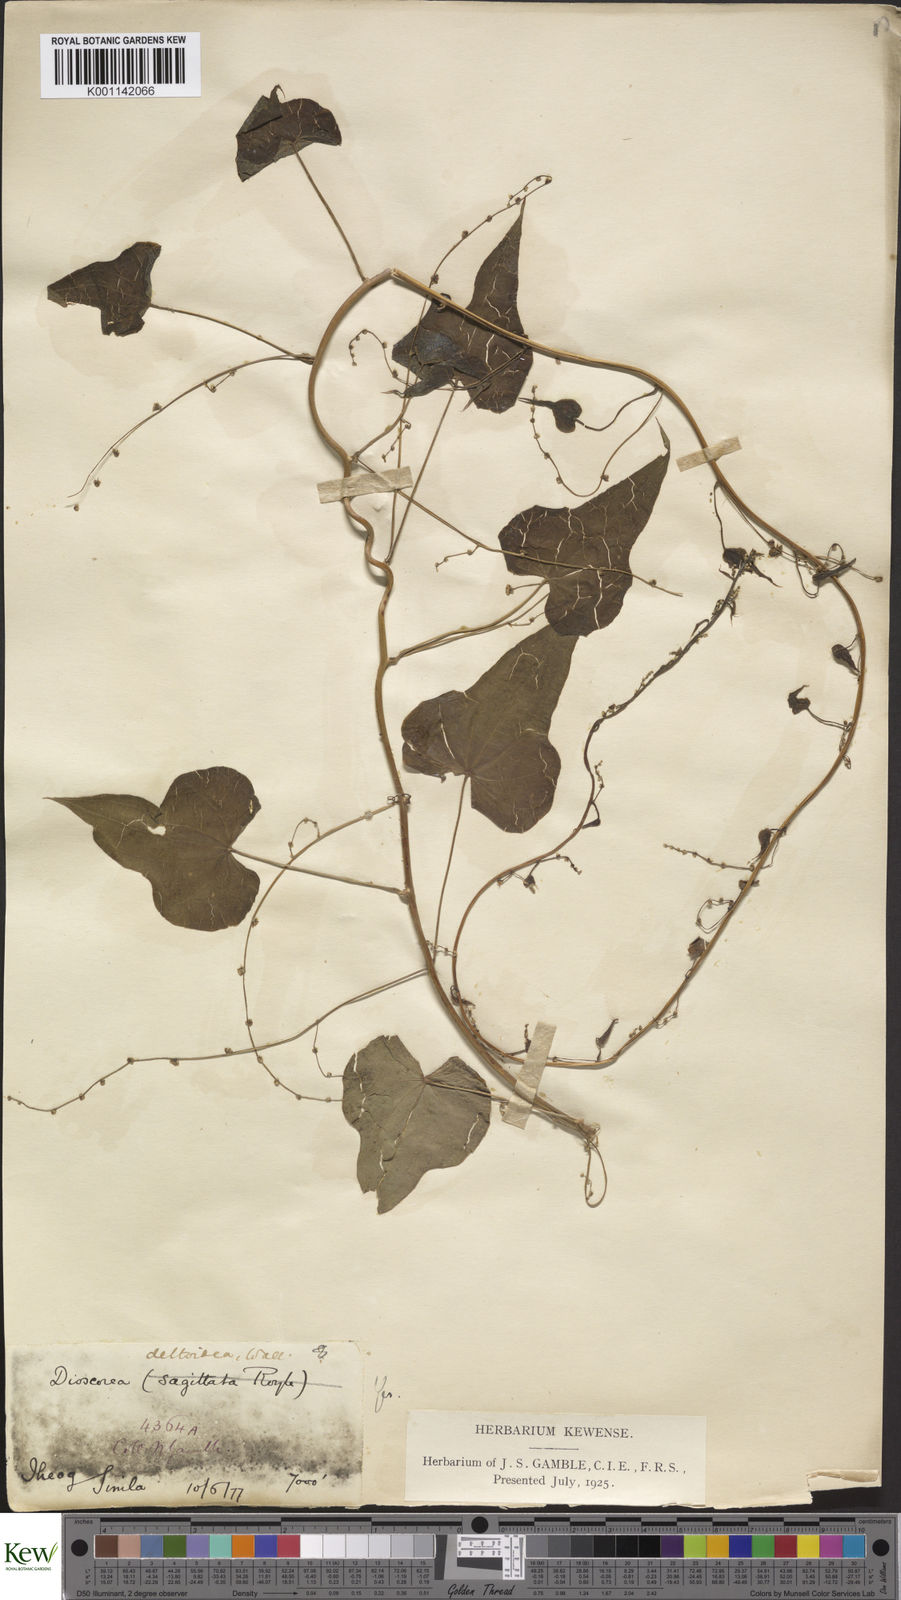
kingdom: Plantae
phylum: Tracheophyta
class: Liliopsida
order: Dioscoreales
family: Dioscoreaceae
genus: Dioscorea
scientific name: Dioscorea deltoidea
